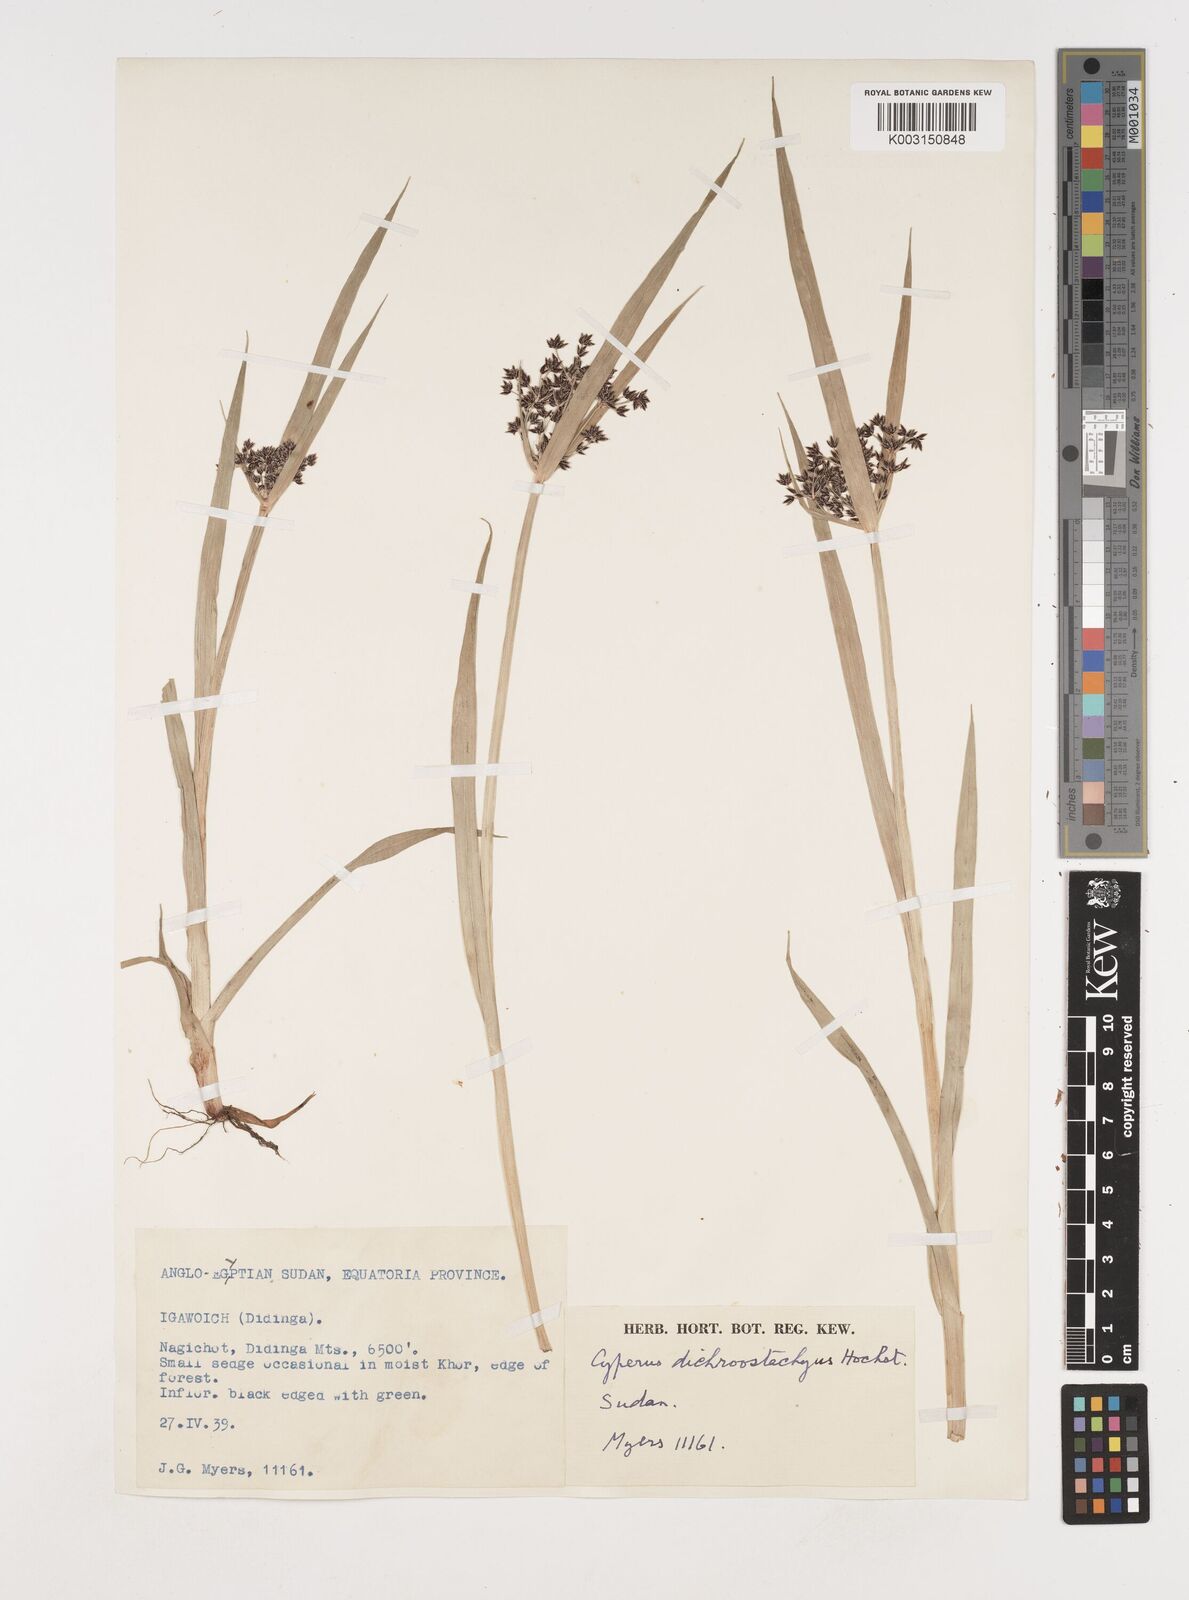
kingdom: Plantae
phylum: Tracheophyta
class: Liliopsida
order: Poales
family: Cyperaceae
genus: Cyperus
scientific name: Cyperus dichrostachyus
